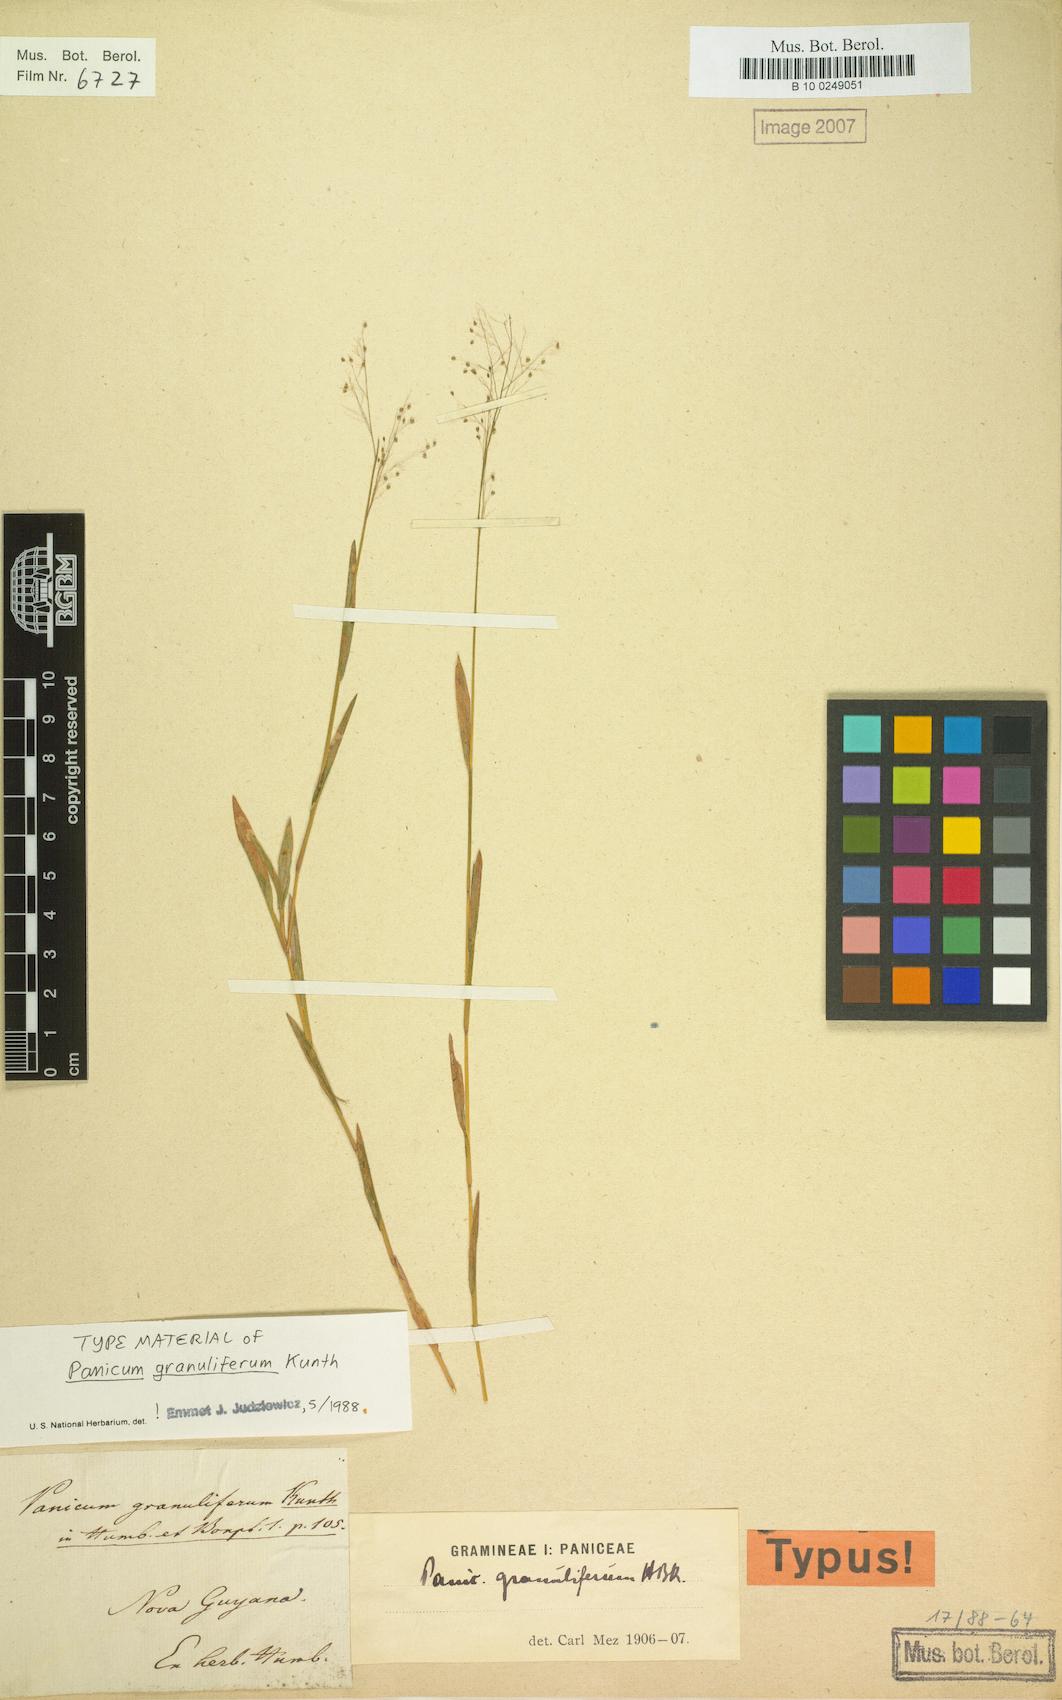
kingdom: Plantae
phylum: Tracheophyta
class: Liliopsida
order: Poales
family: Poaceae
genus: Trichanthecium
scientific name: Trichanthecium granuliferum
